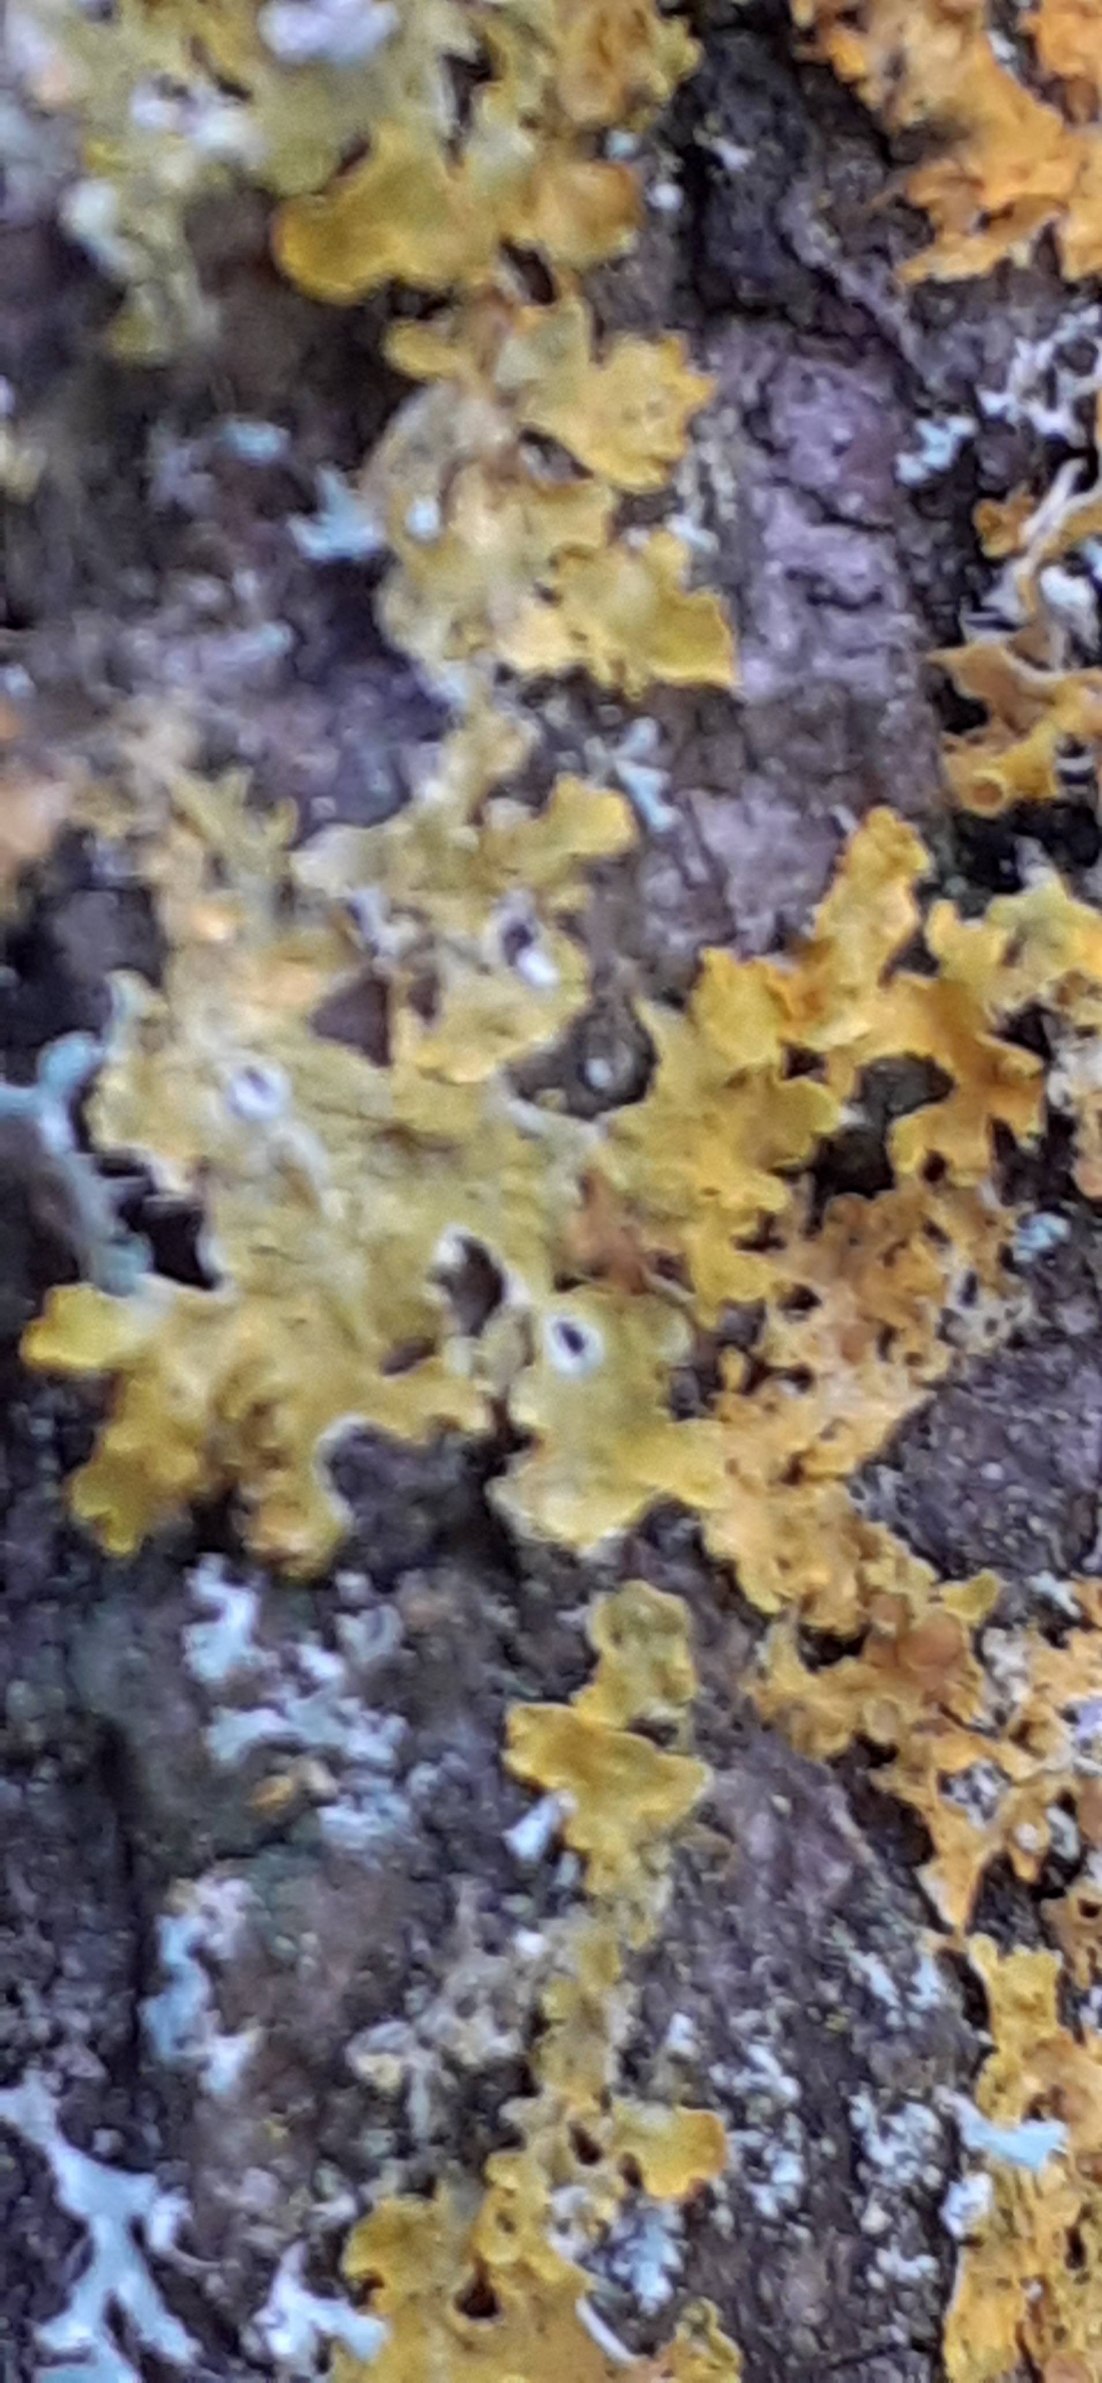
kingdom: Fungi
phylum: Ascomycota
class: Lecanoromycetes
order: Teloschistales
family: Teloschistaceae
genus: Xanthoria
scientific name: Xanthoria parietina
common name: Almindelig væggelav
